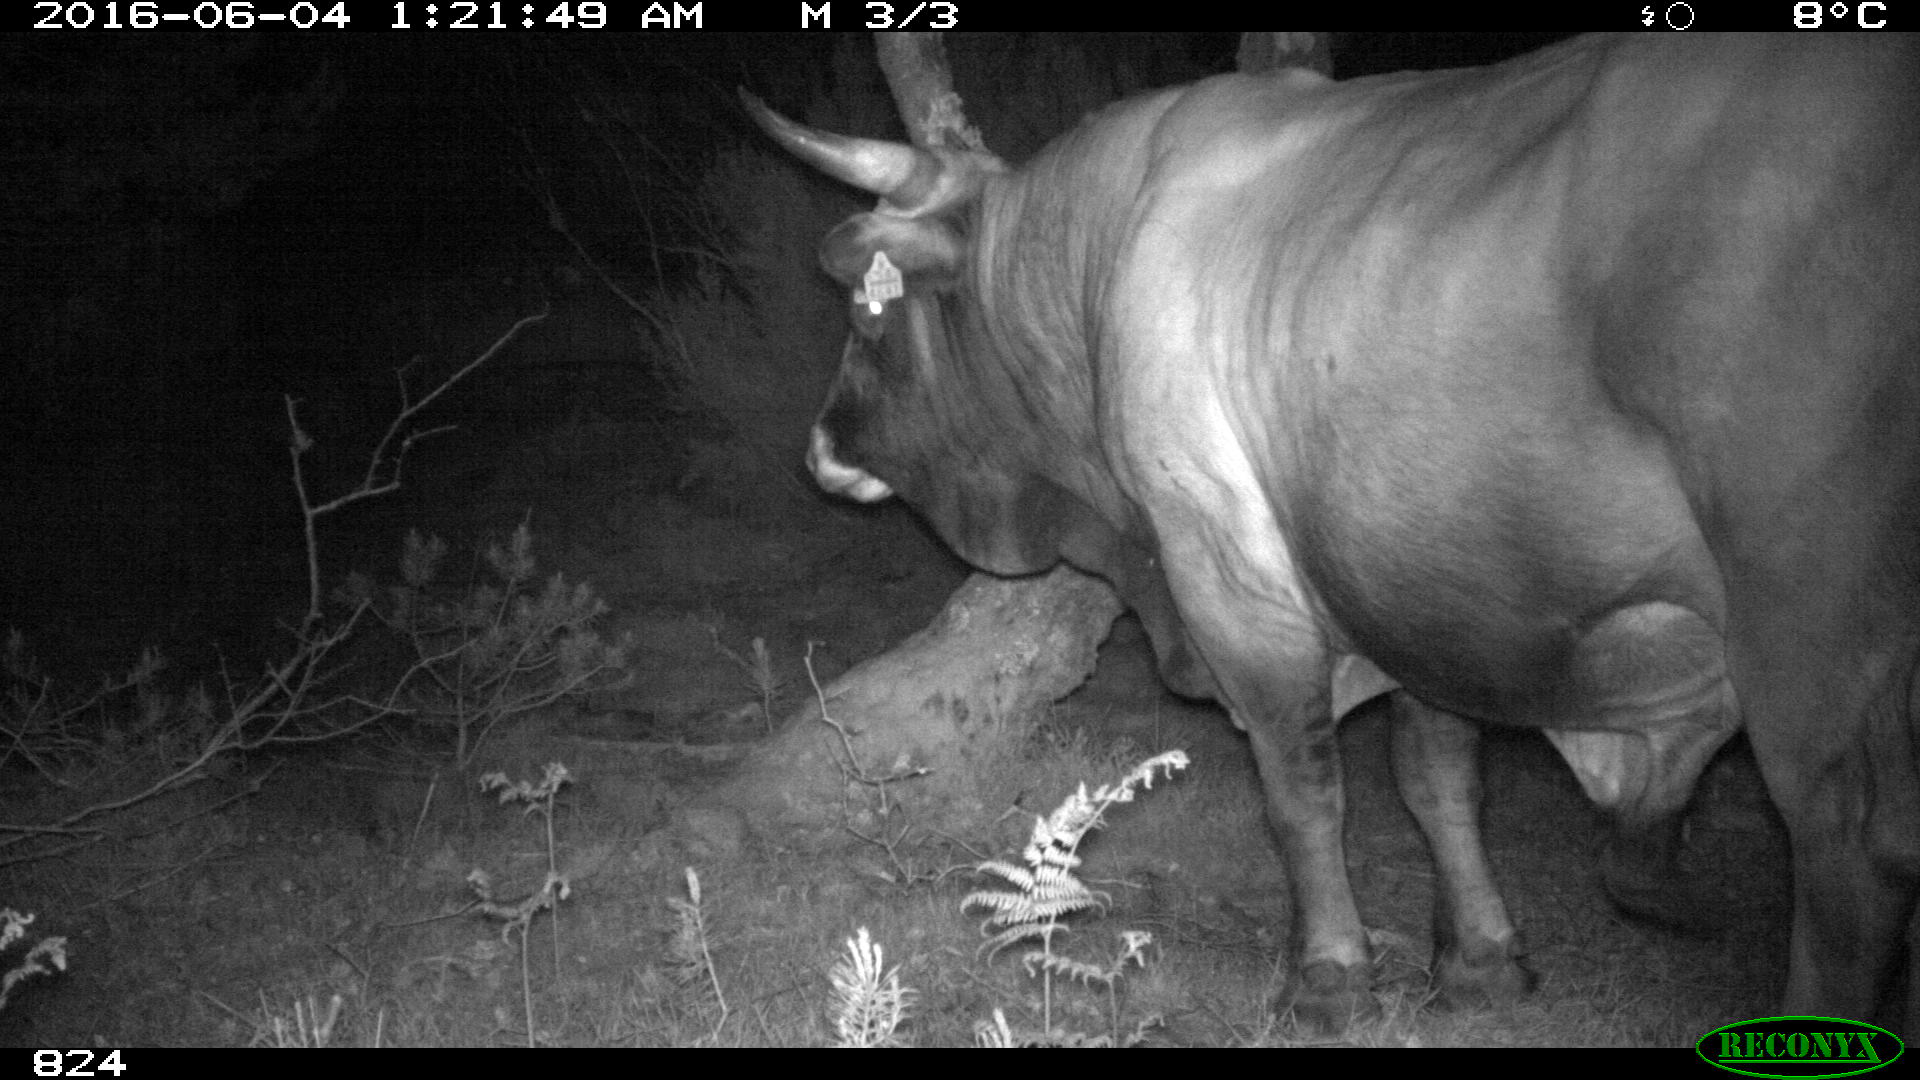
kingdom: Animalia
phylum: Chordata
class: Mammalia
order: Artiodactyla
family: Bovidae
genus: Bos
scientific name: Bos taurus
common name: Domesticated cattle
